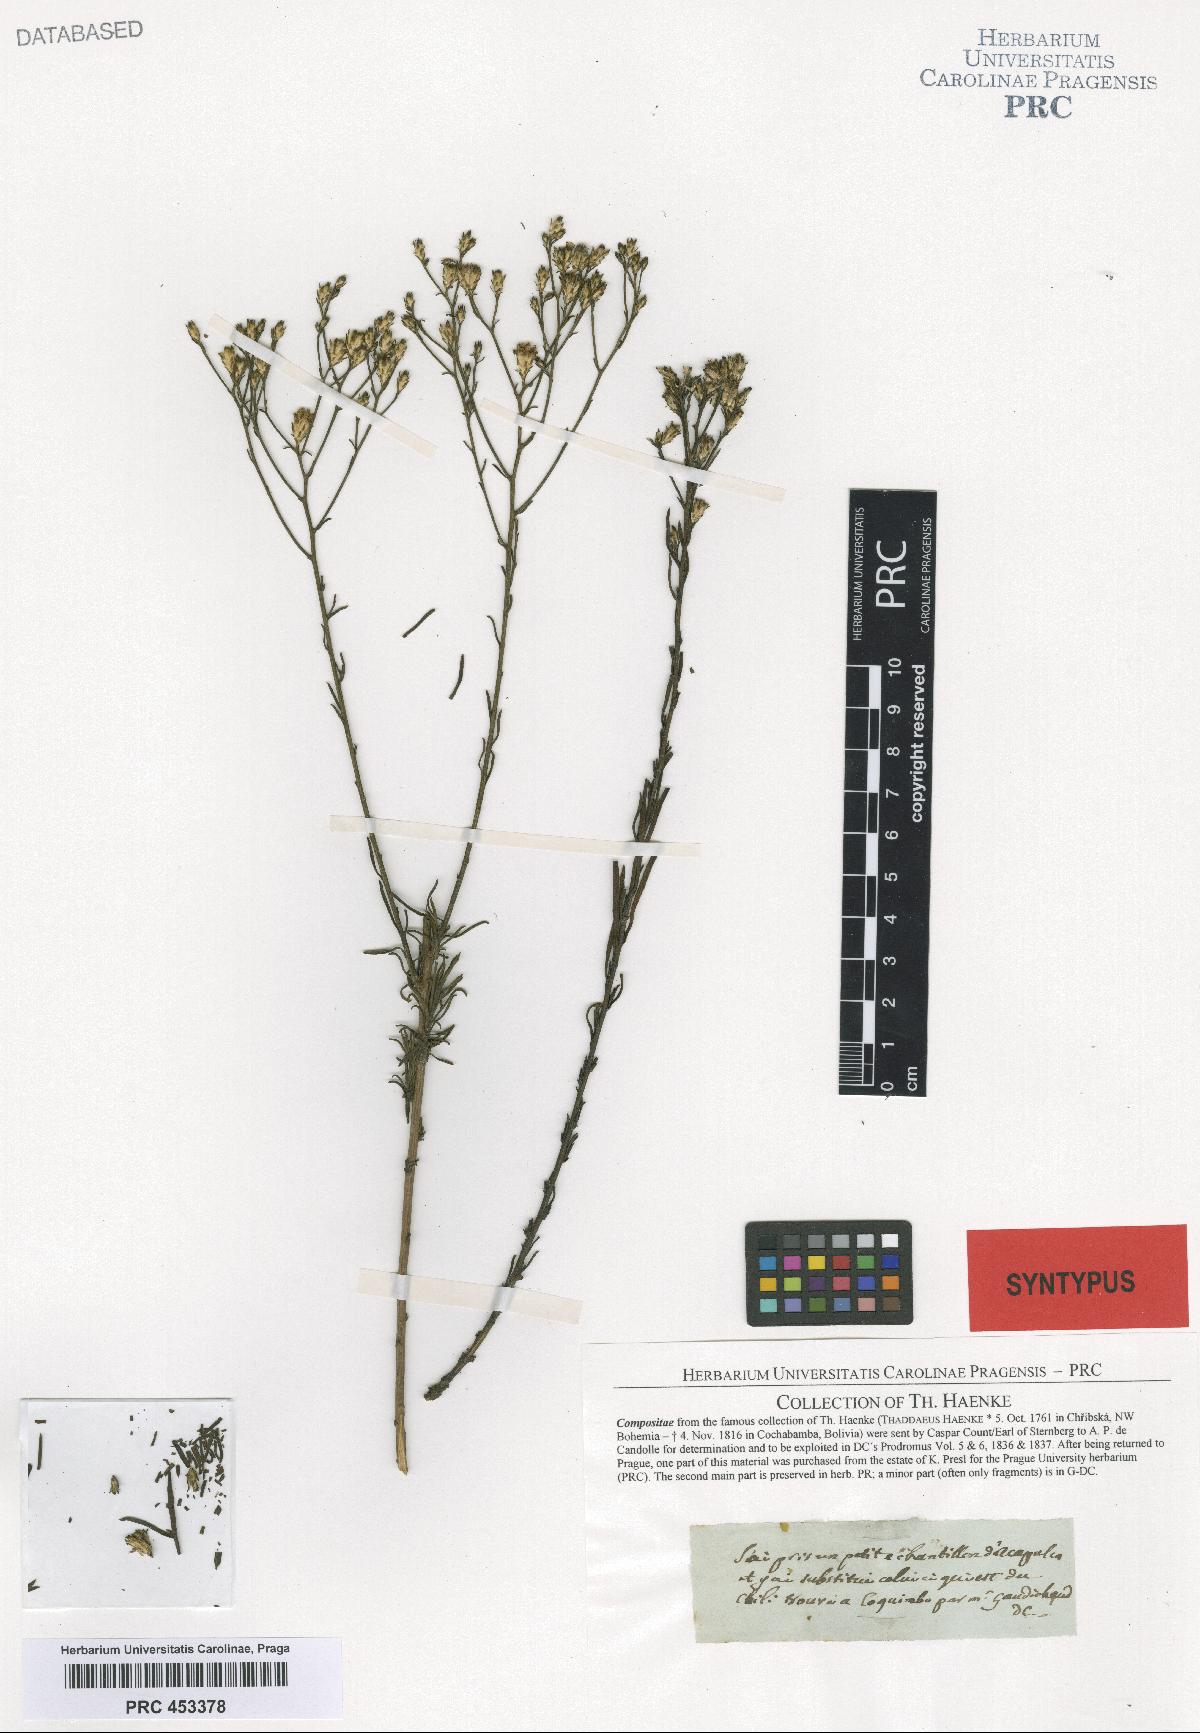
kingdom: Plantae
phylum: Tracheophyta
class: Magnoliopsida
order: Asterales
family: Asteraceae
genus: Gutierrezia
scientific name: Gutierrezia resinosa
